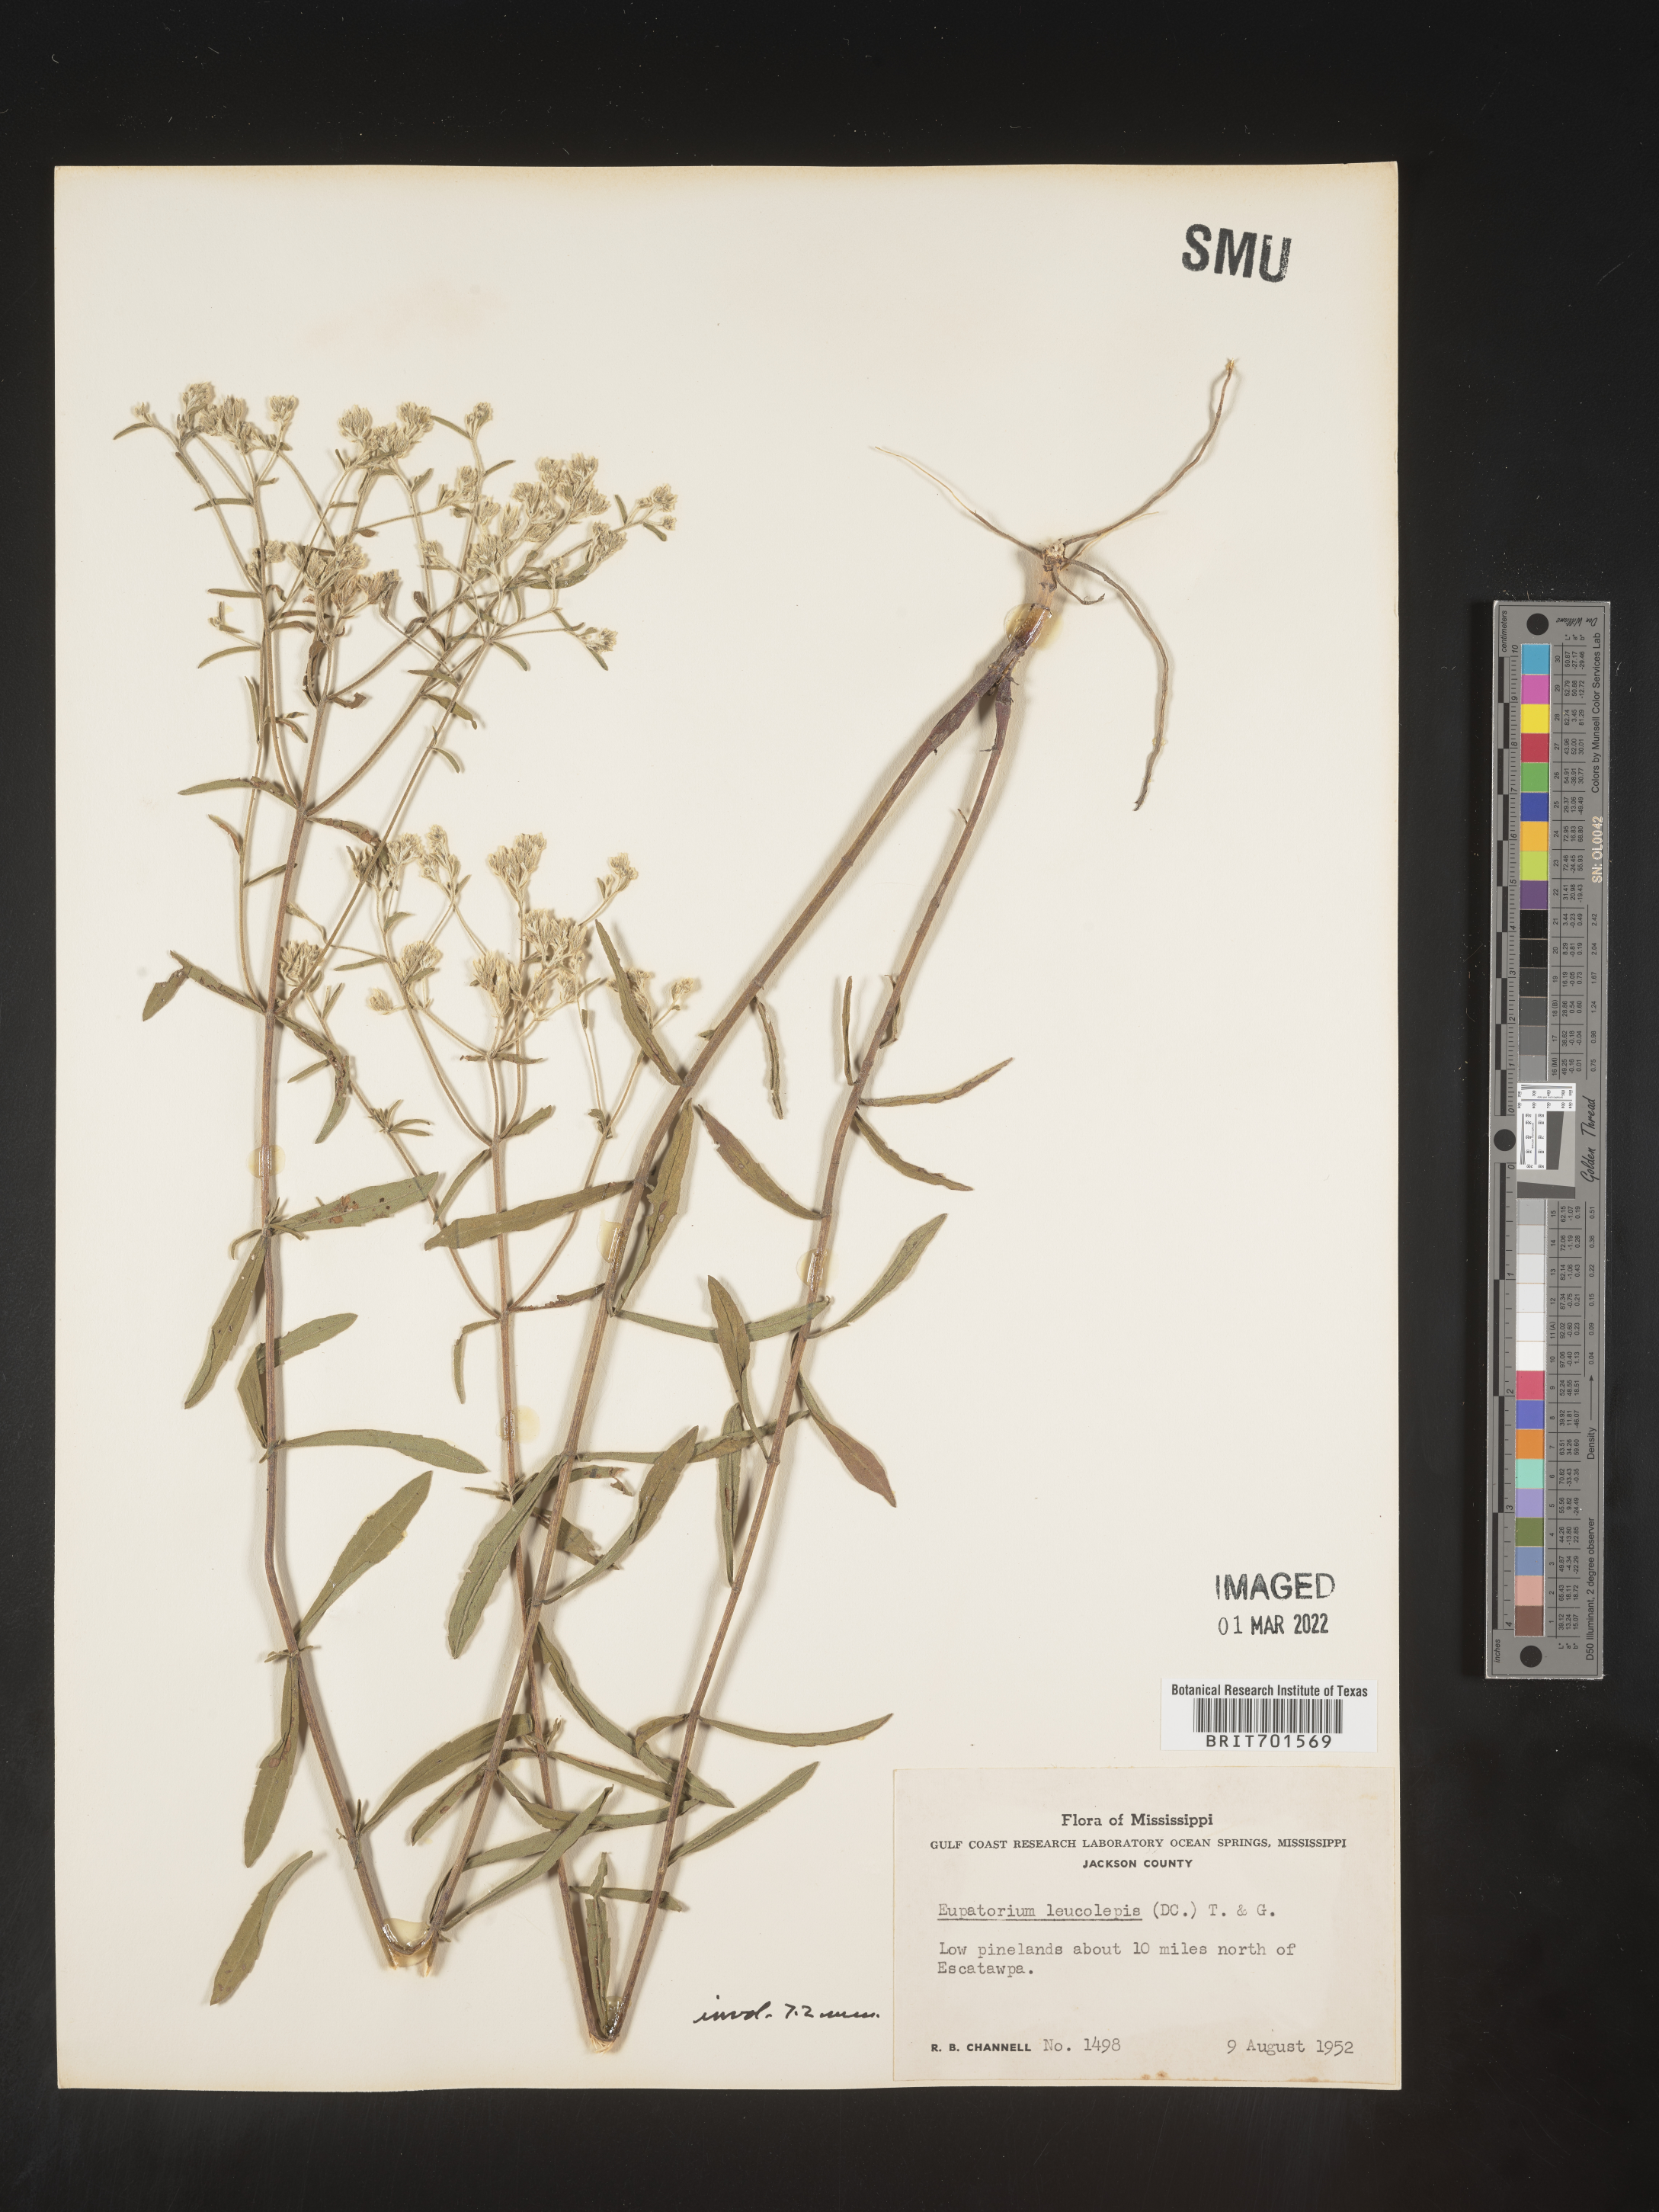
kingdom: Plantae
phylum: Tracheophyta
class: Magnoliopsida
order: Asterales
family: Asteraceae
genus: Eupatorium
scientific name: Eupatorium leucolepis
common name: Justiceweed
